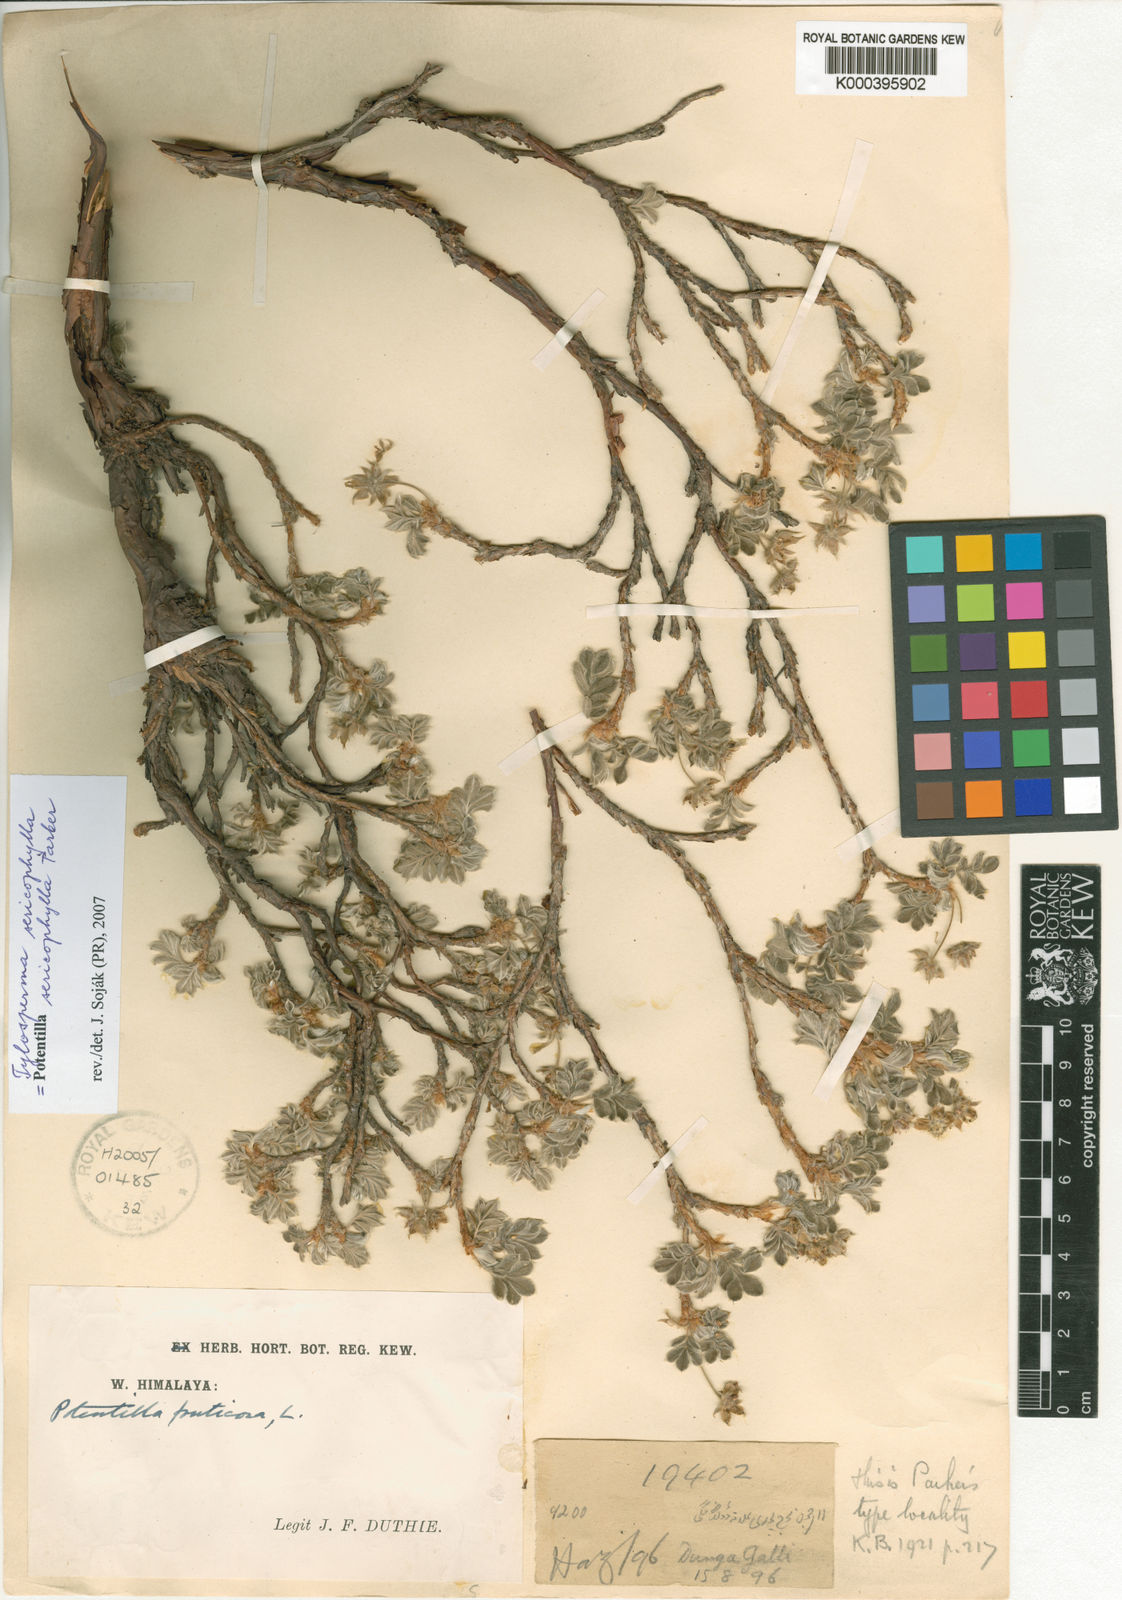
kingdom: Plantae
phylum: Tracheophyta
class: Magnoliopsida
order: Rosales
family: Rosaceae
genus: Argentina
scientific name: Argentina sericophylla
